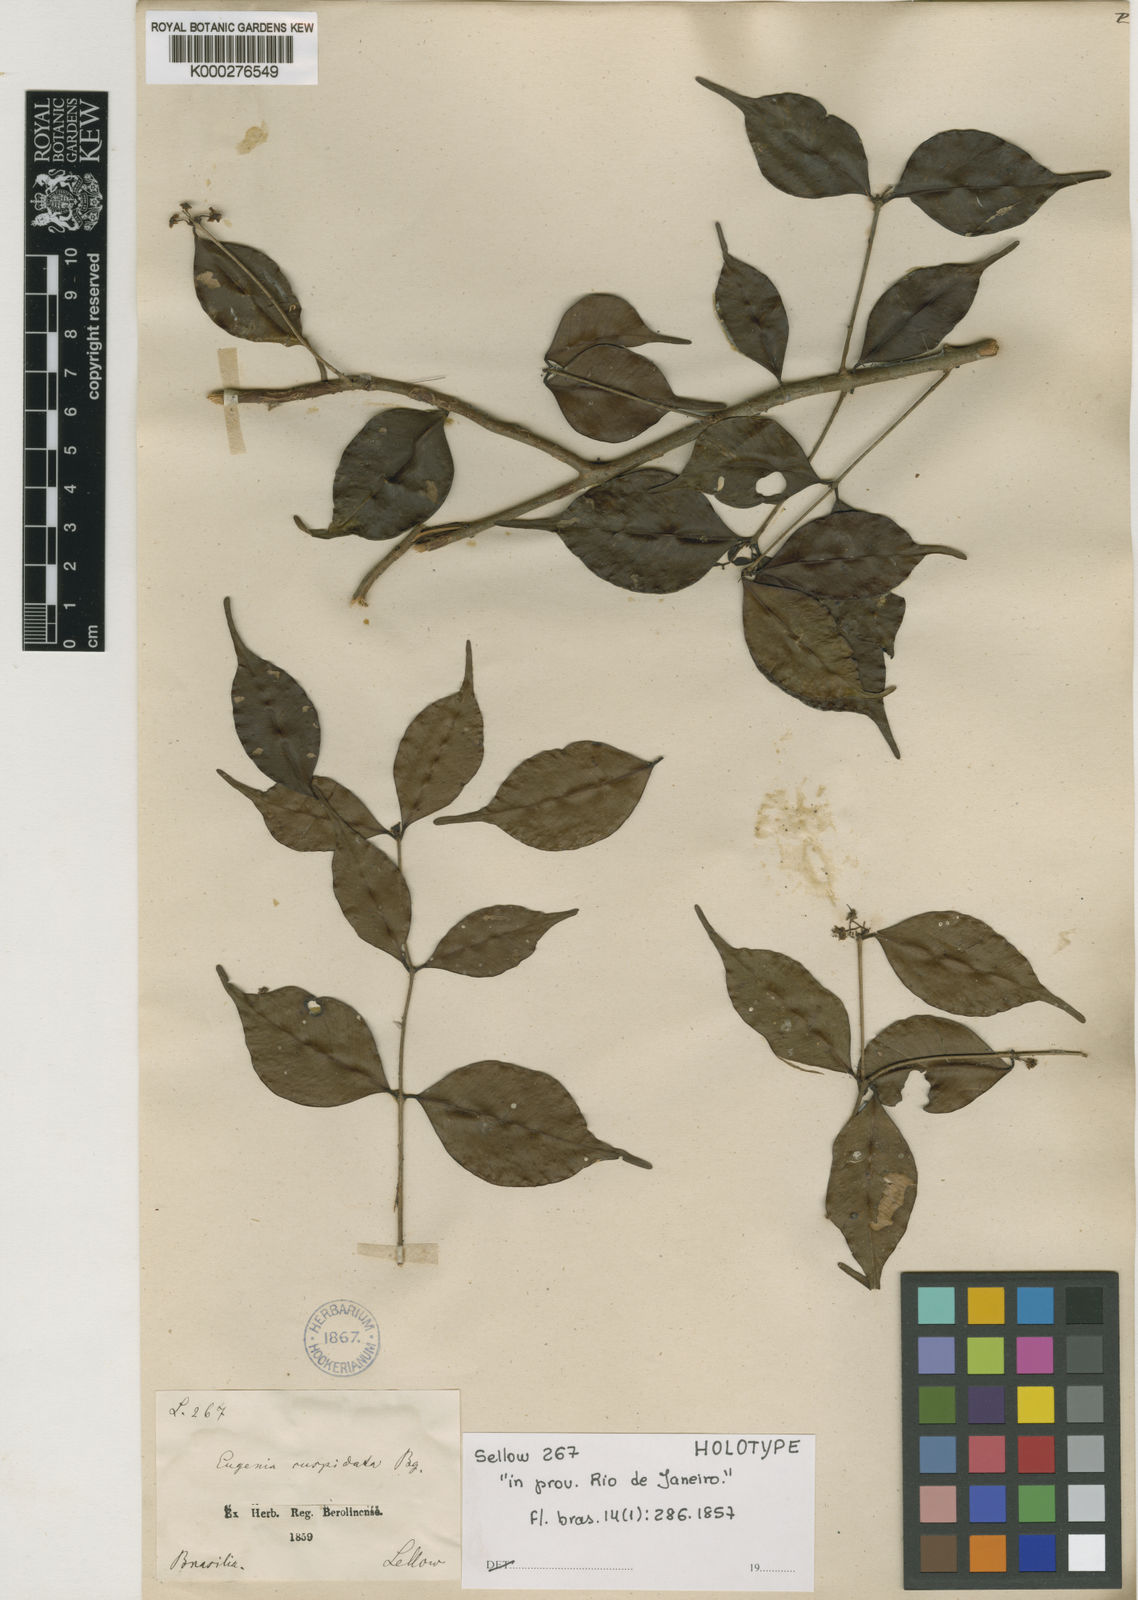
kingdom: Plantae
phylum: Tracheophyta
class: Magnoliopsida
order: Myrtales
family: Myrtaceae
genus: Eugenia
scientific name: Eugenia excelsa
